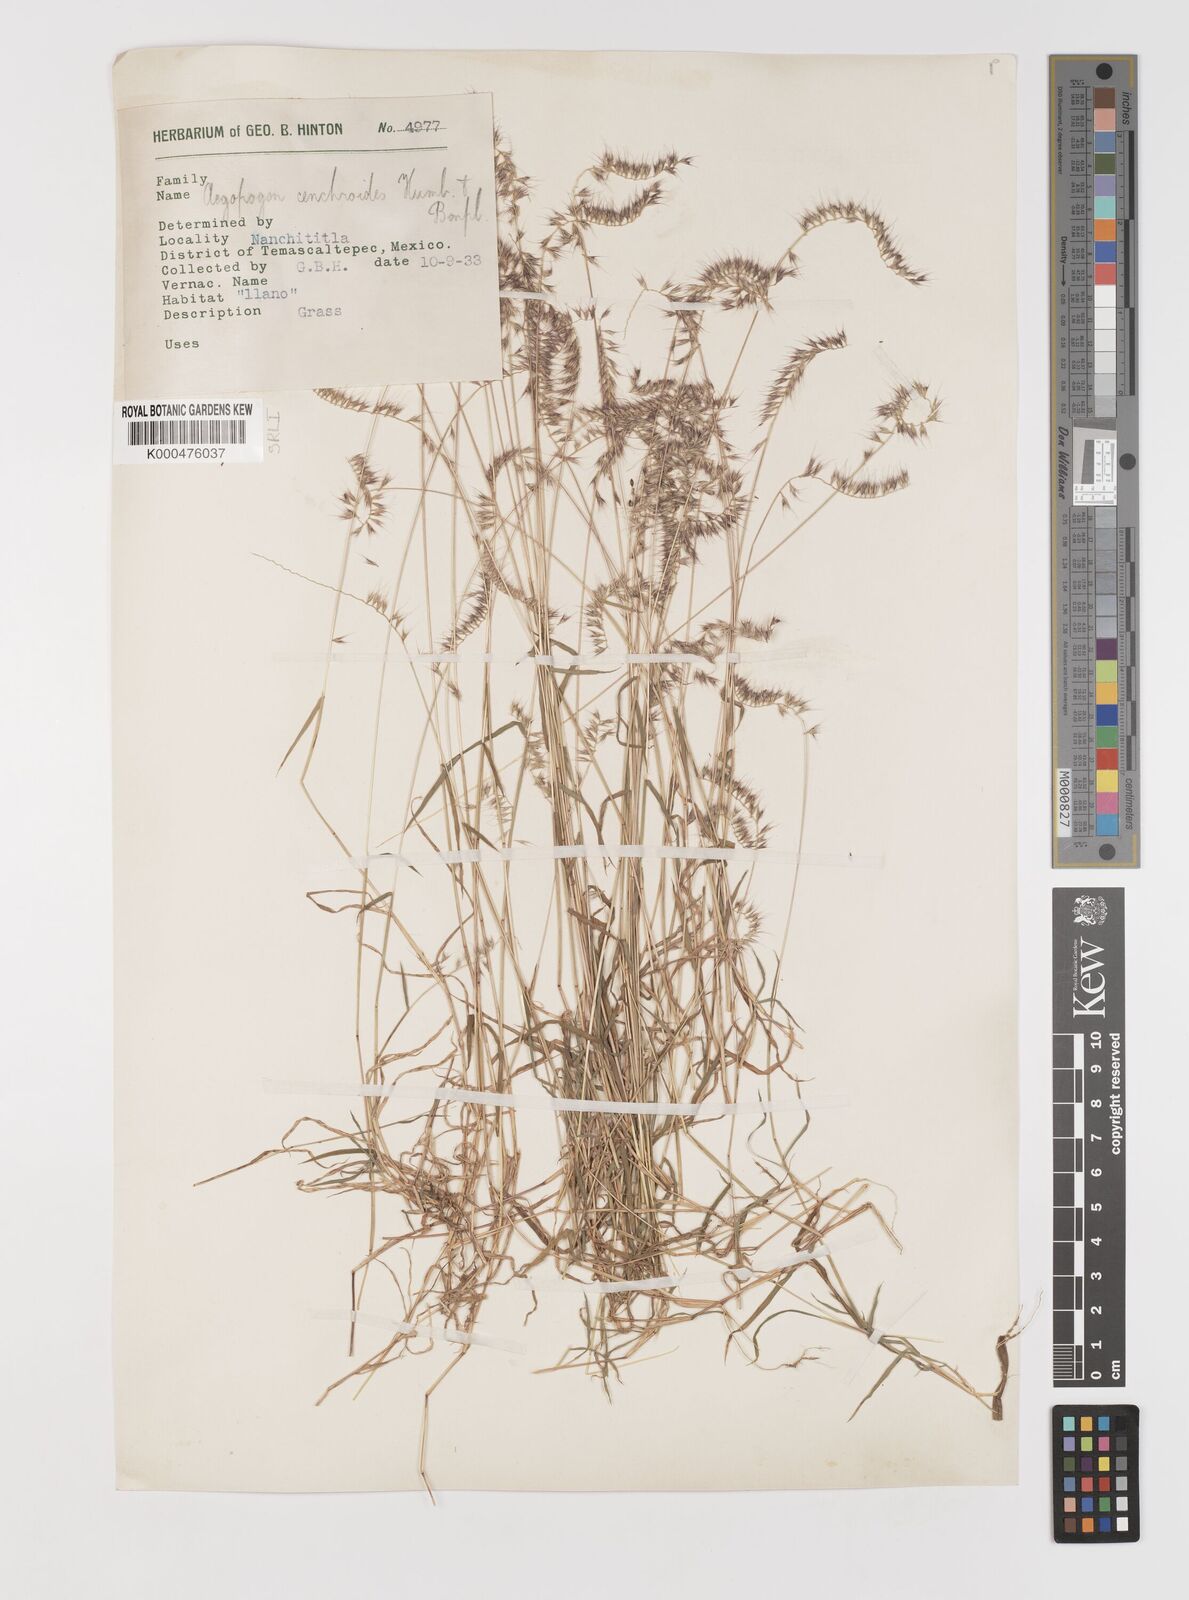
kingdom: Plantae
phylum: Tracheophyta
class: Liliopsida
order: Poales
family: Poaceae
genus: Muhlenbergia
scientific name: Muhlenbergia cenchroides
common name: Relaxgrass
